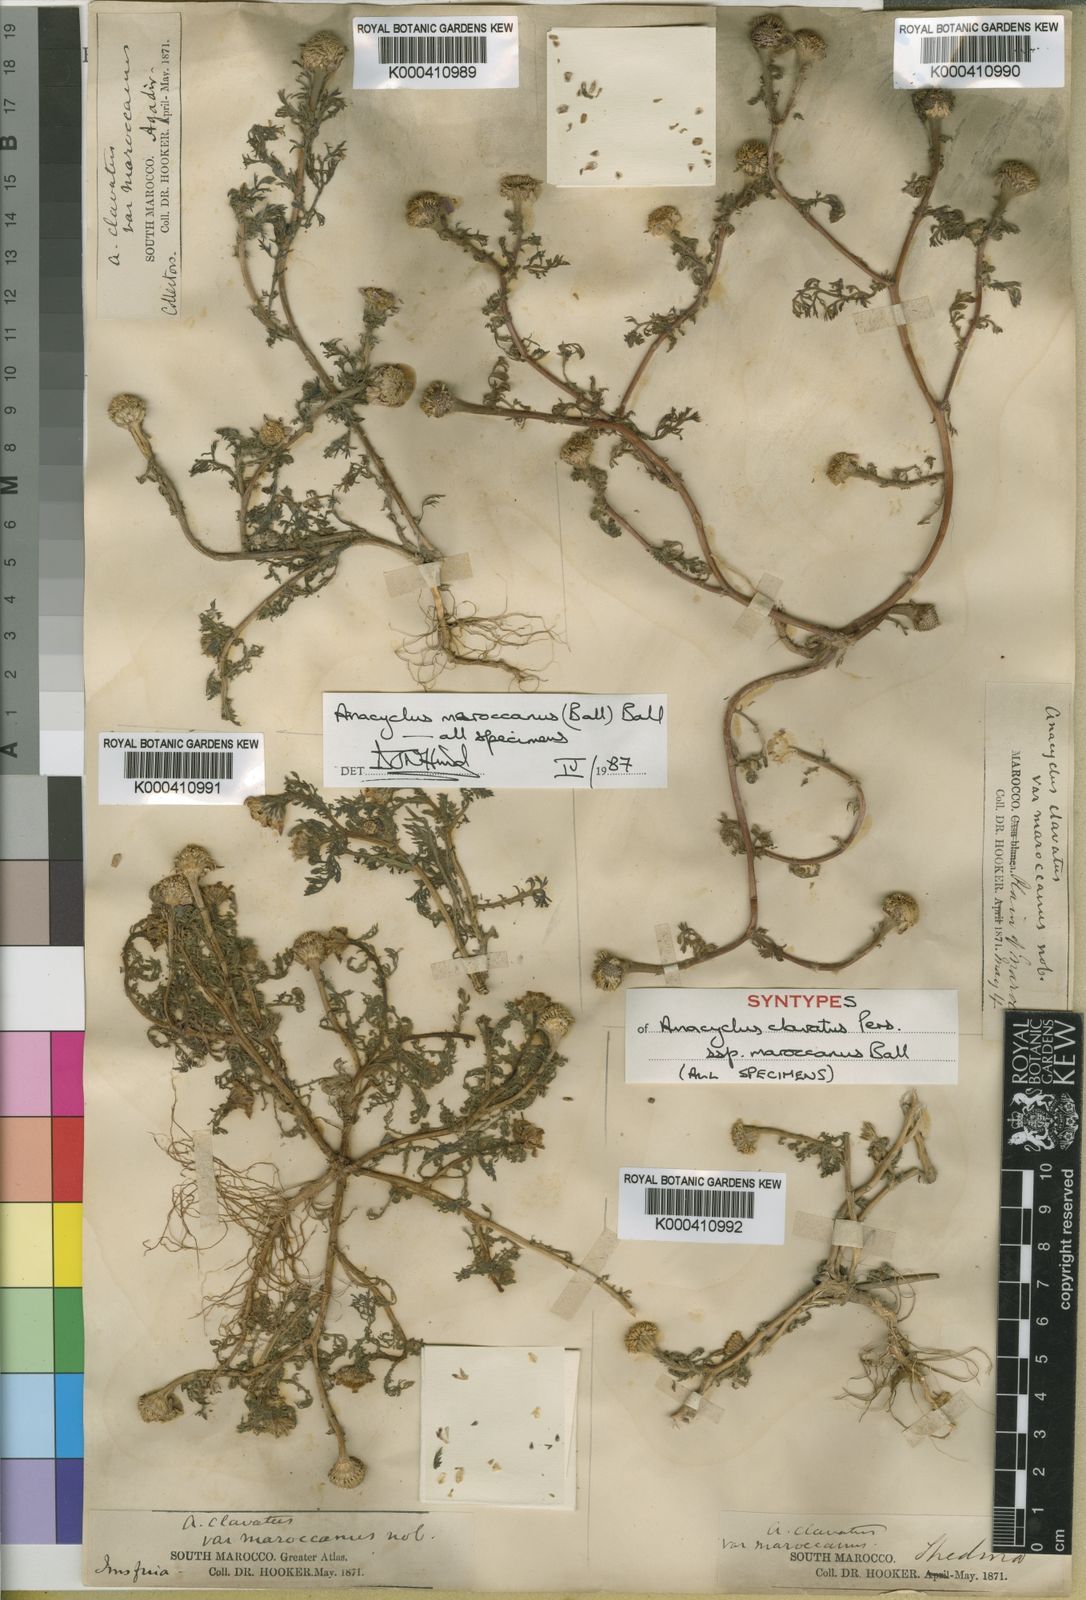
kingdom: Plantae
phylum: Tracheophyta
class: Magnoliopsida
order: Asterales
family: Asteraceae
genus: Anacyclus
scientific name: Anacyclus maroccanus
